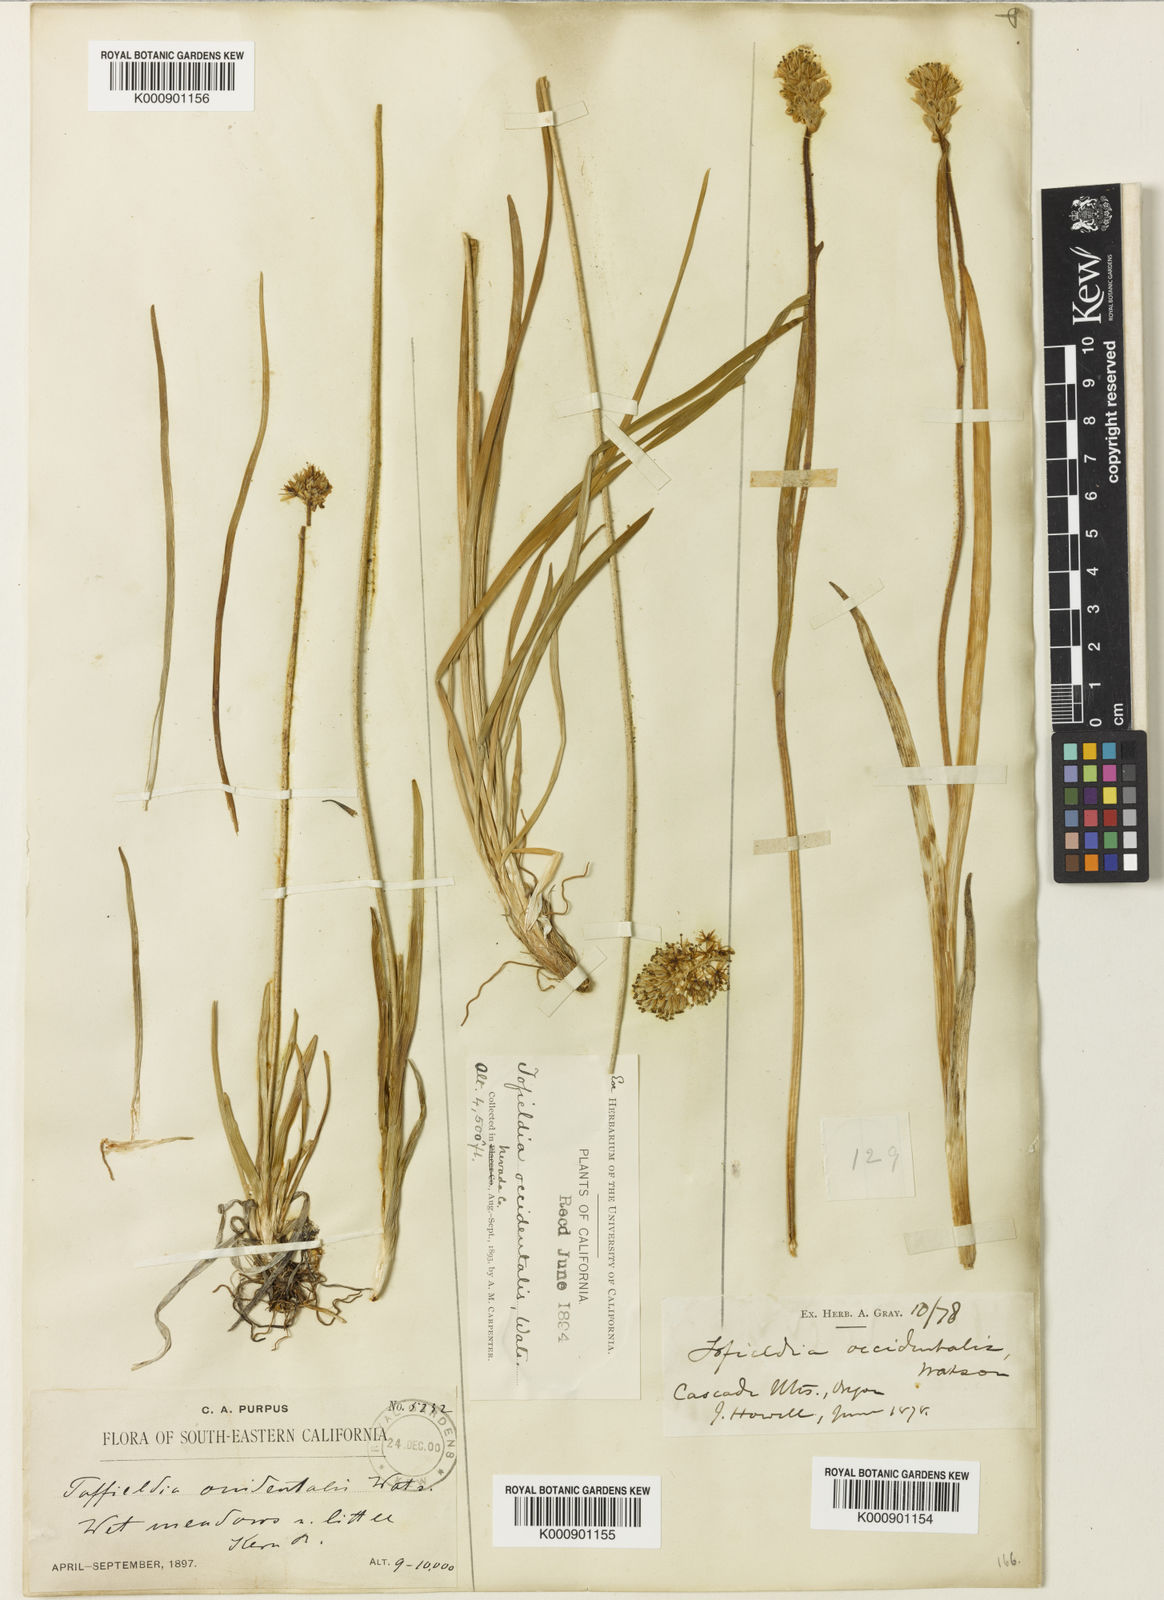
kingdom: Plantae
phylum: Tracheophyta
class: Liliopsida
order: Alismatales
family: Tofieldiaceae
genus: Triantha
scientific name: Triantha occidentalis
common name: Western false asphodel
